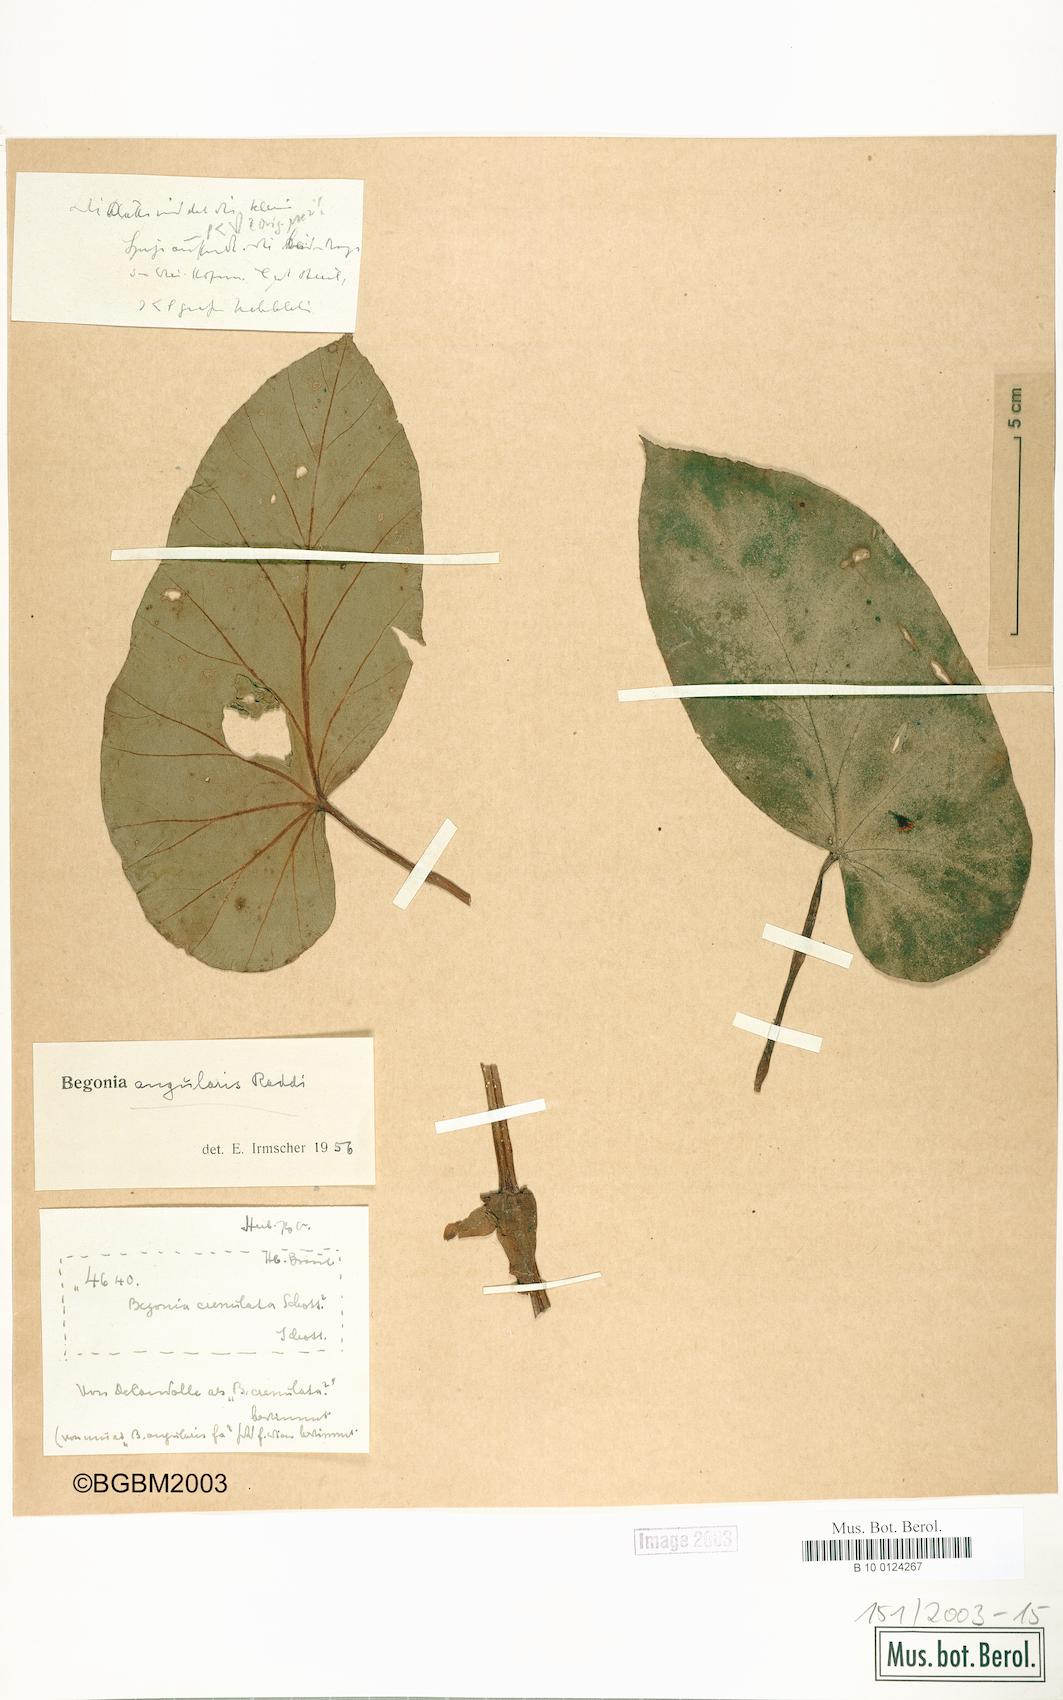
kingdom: Plantae
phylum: Tracheophyta
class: Magnoliopsida
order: Cucurbitales
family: Begoniaceae
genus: Begonia
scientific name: Begonia angularis
